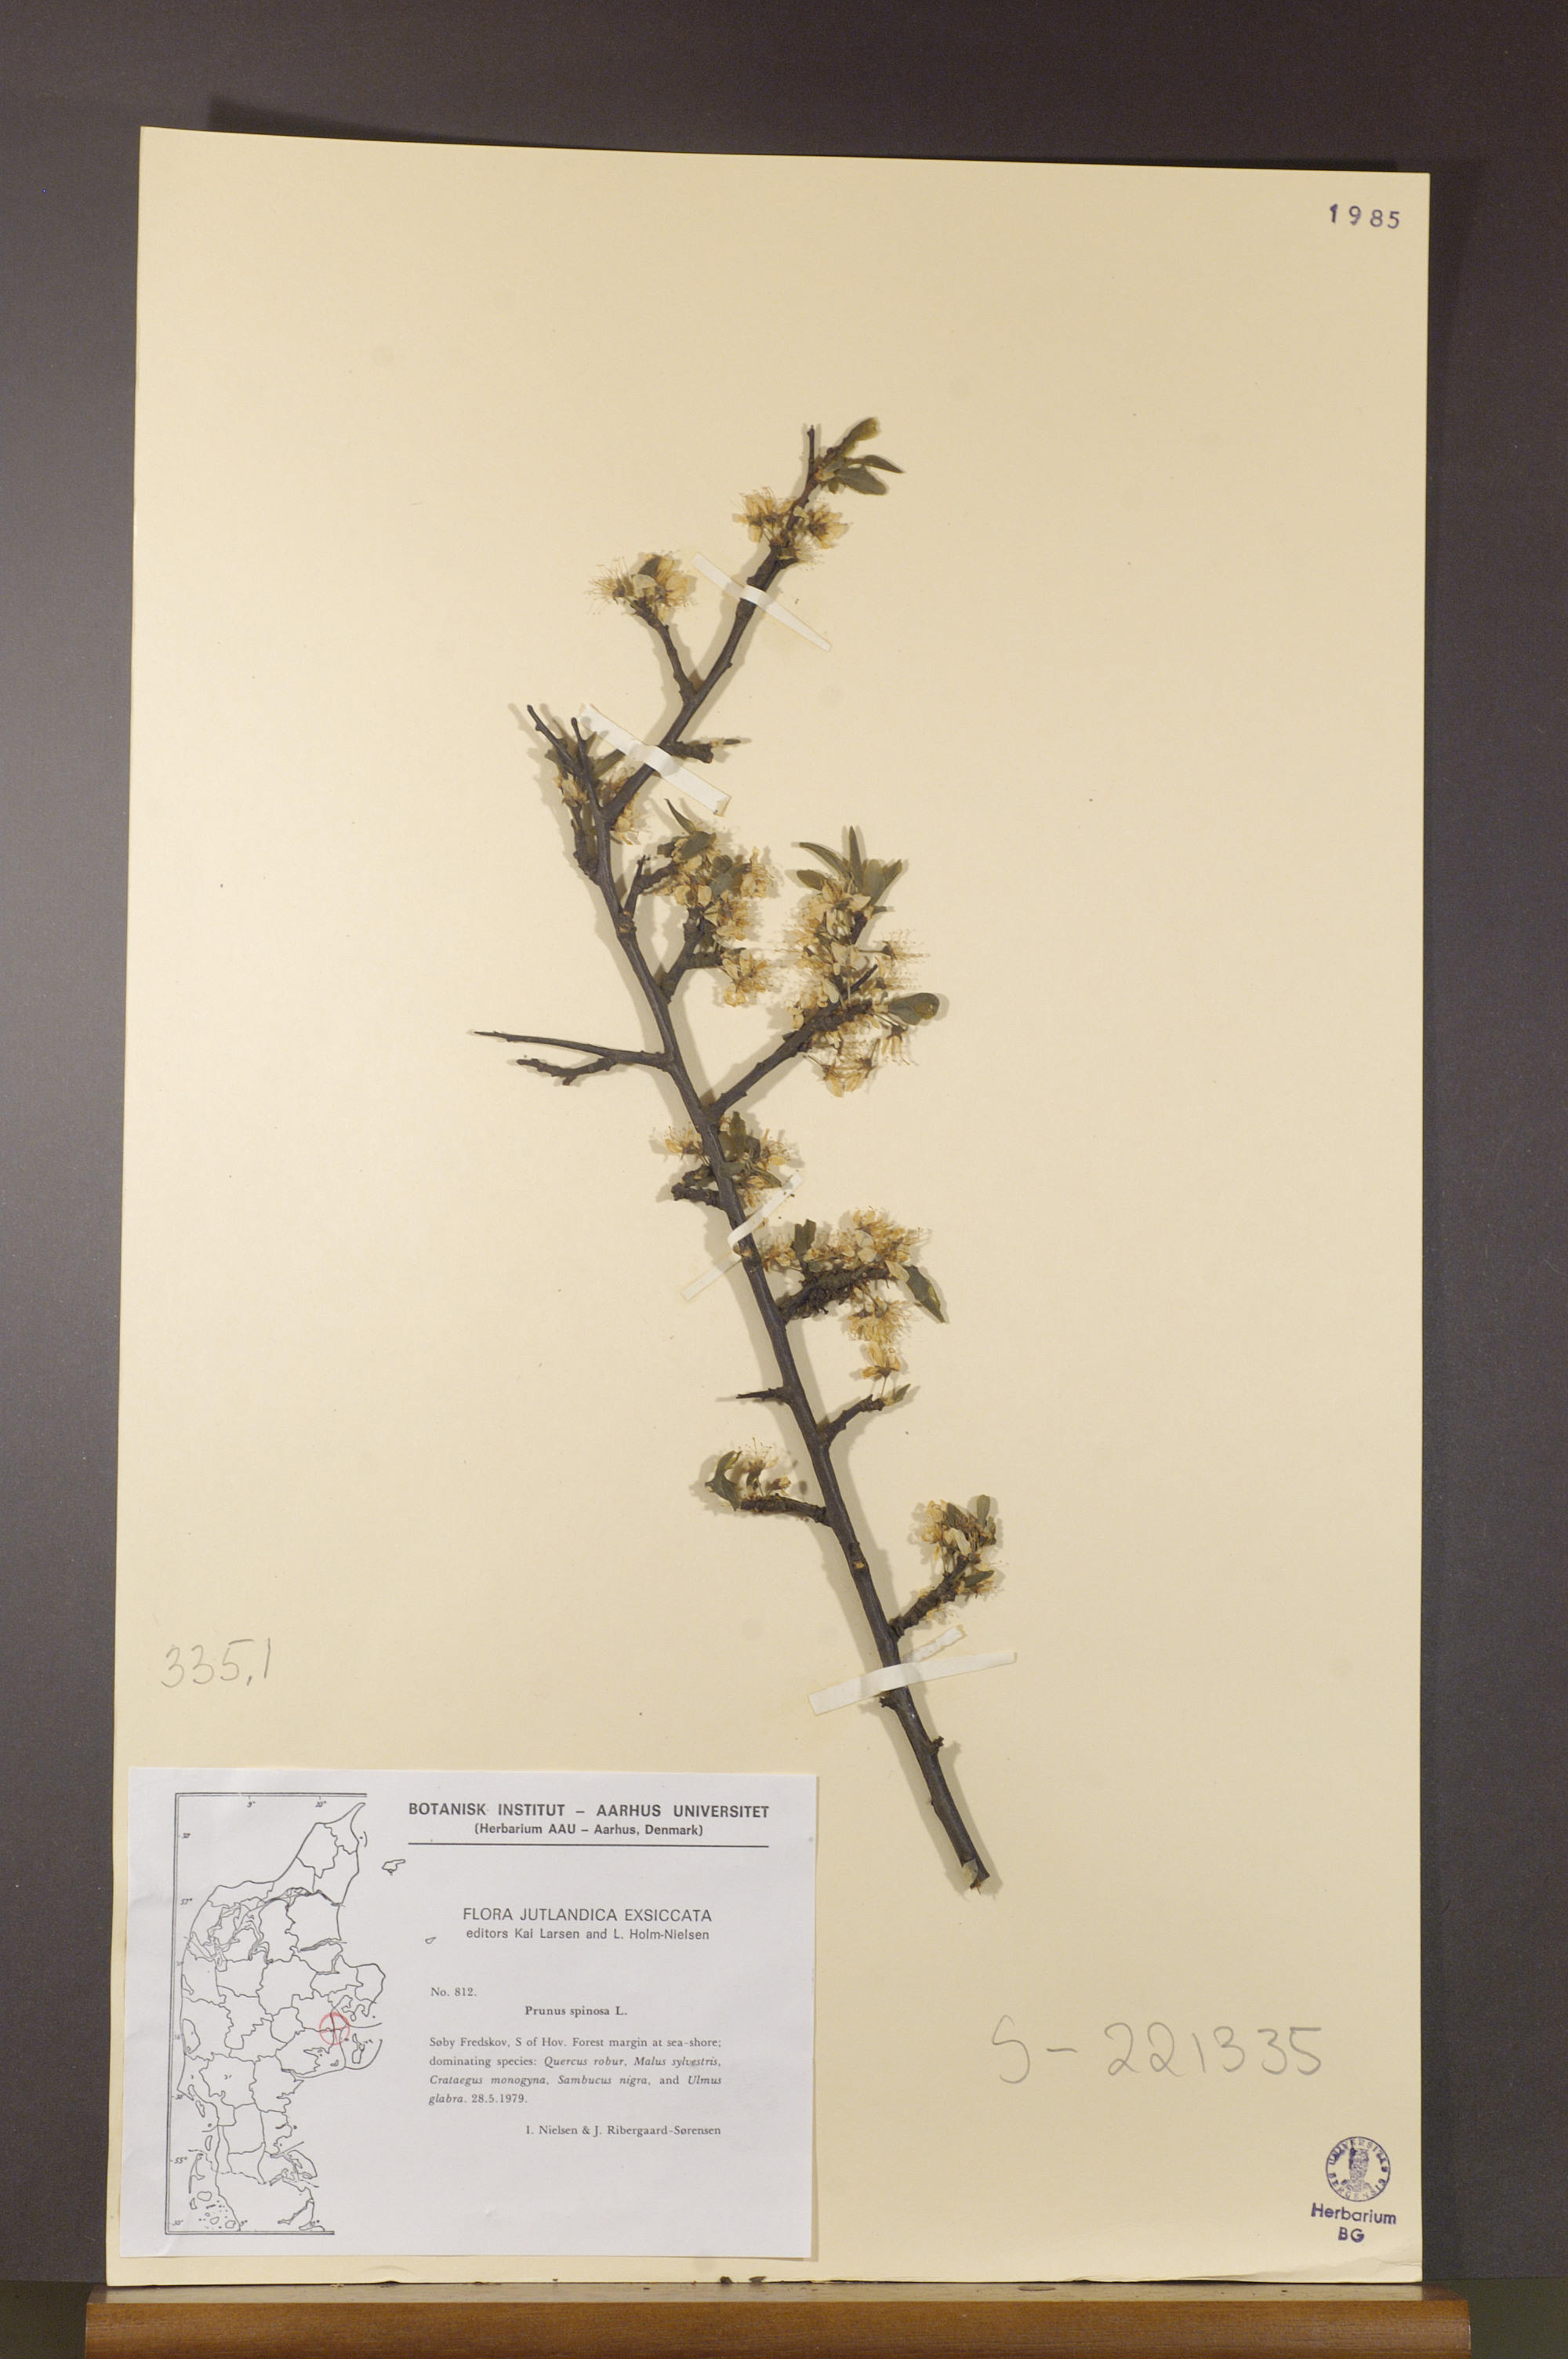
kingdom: Plantae
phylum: Tracheophyta
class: Magnoliopsida
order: Rosales
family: Rosaceae
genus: Prunus
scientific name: Prunus spinosa
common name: Blackthorn
